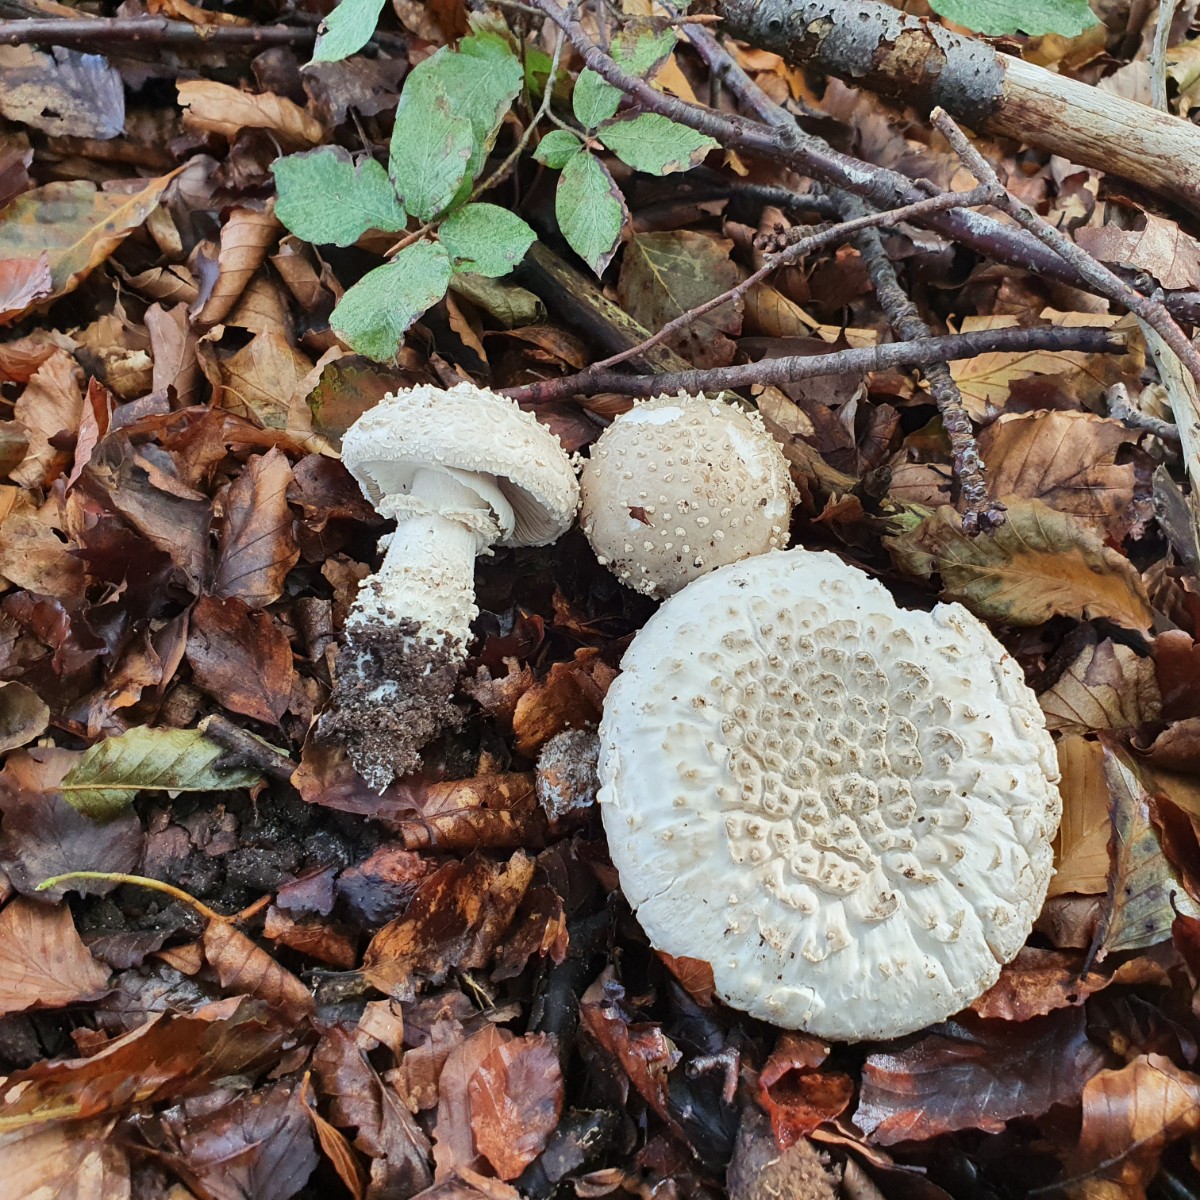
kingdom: Fungi
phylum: Basidiomycota
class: Agaricomycetes
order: Agaricales
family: Amanitaceae
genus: Aspidella
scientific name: Aspidella solitaria
